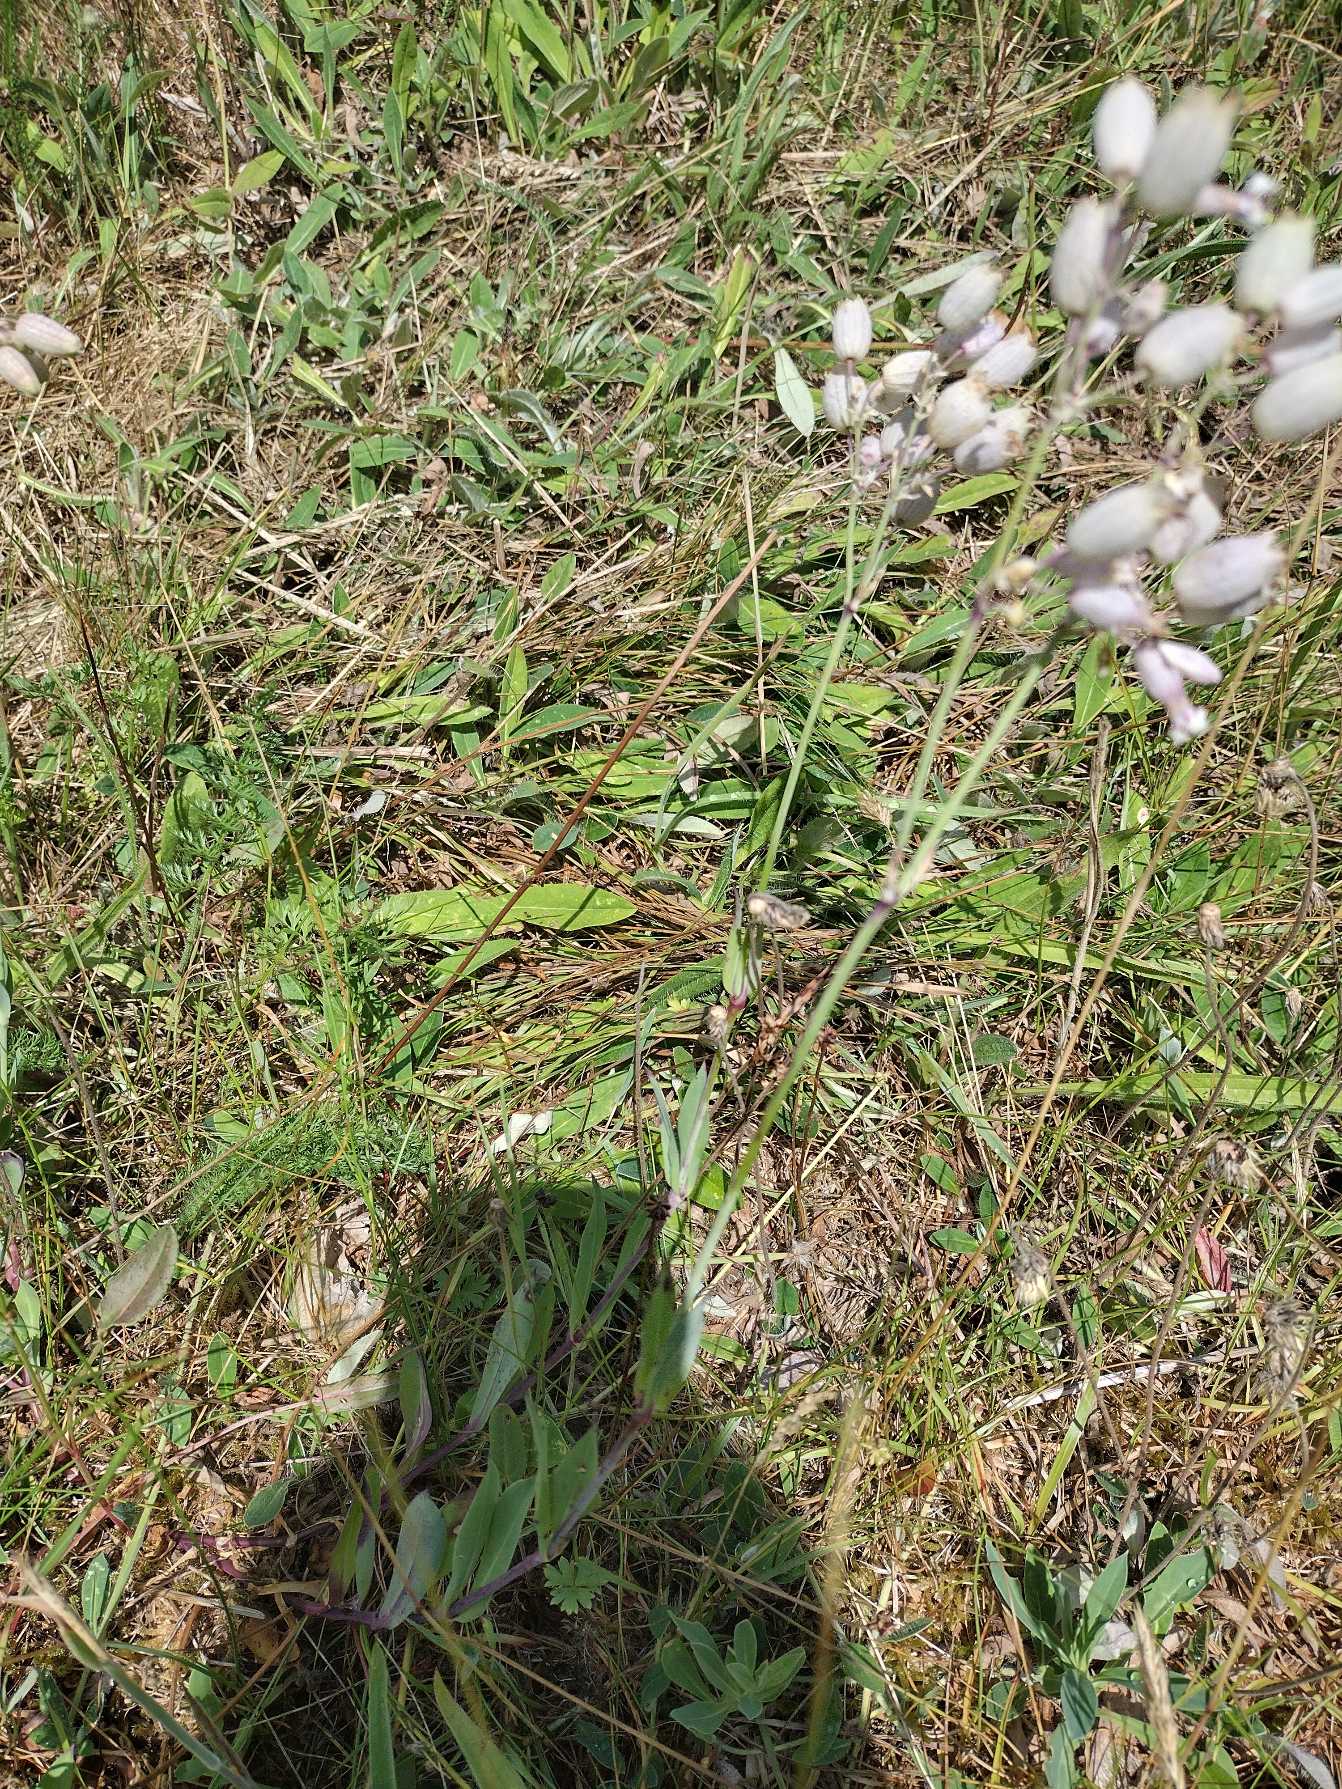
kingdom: Plantae
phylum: Tracheophyta
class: Magnoliopsida
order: Caryophyllales
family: Caryophyllaceae
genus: Silene
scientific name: Silene vulgaris
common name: Blæresmælde
